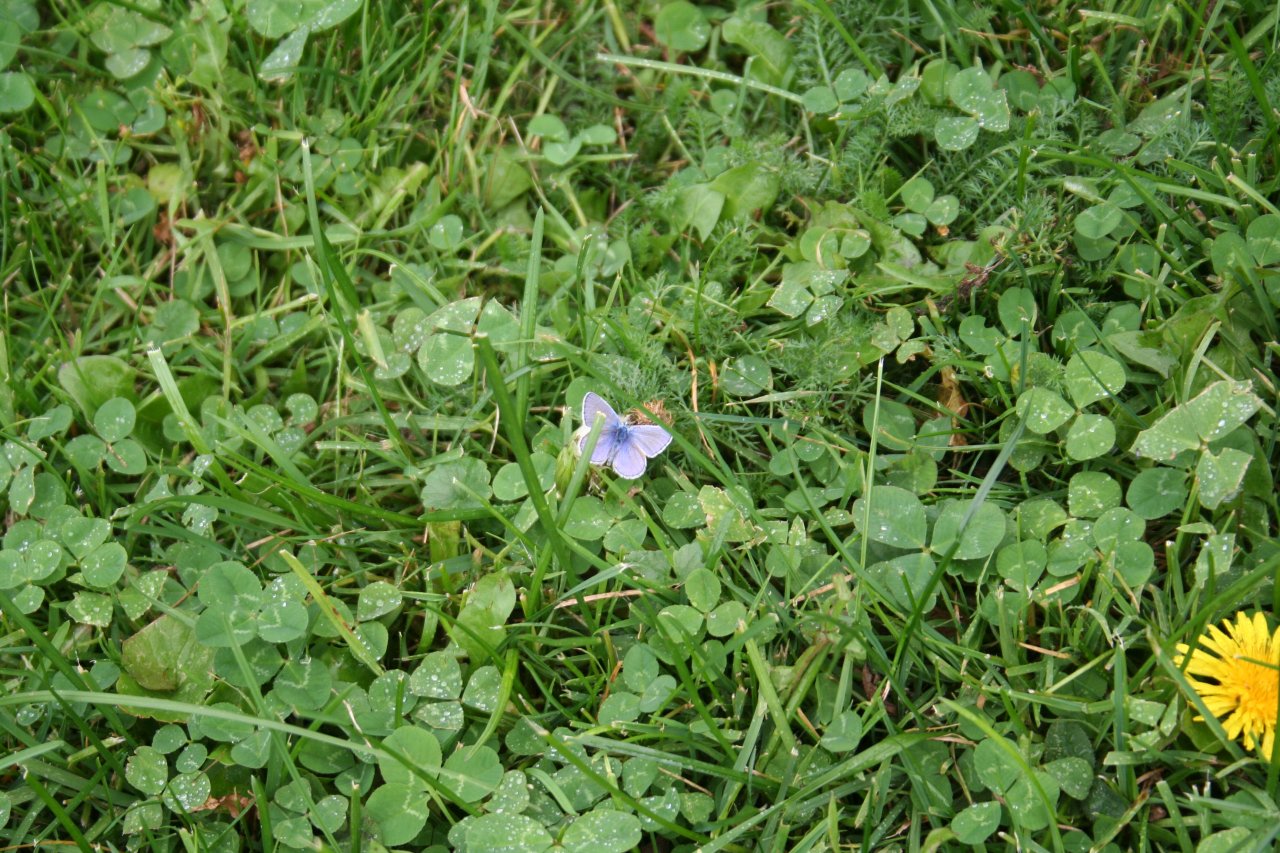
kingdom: Animalia
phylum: Arthropoda
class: Insecta
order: Lepidoptera
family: Lycaenidae
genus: Polyommatus
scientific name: Polyommatus icarus
